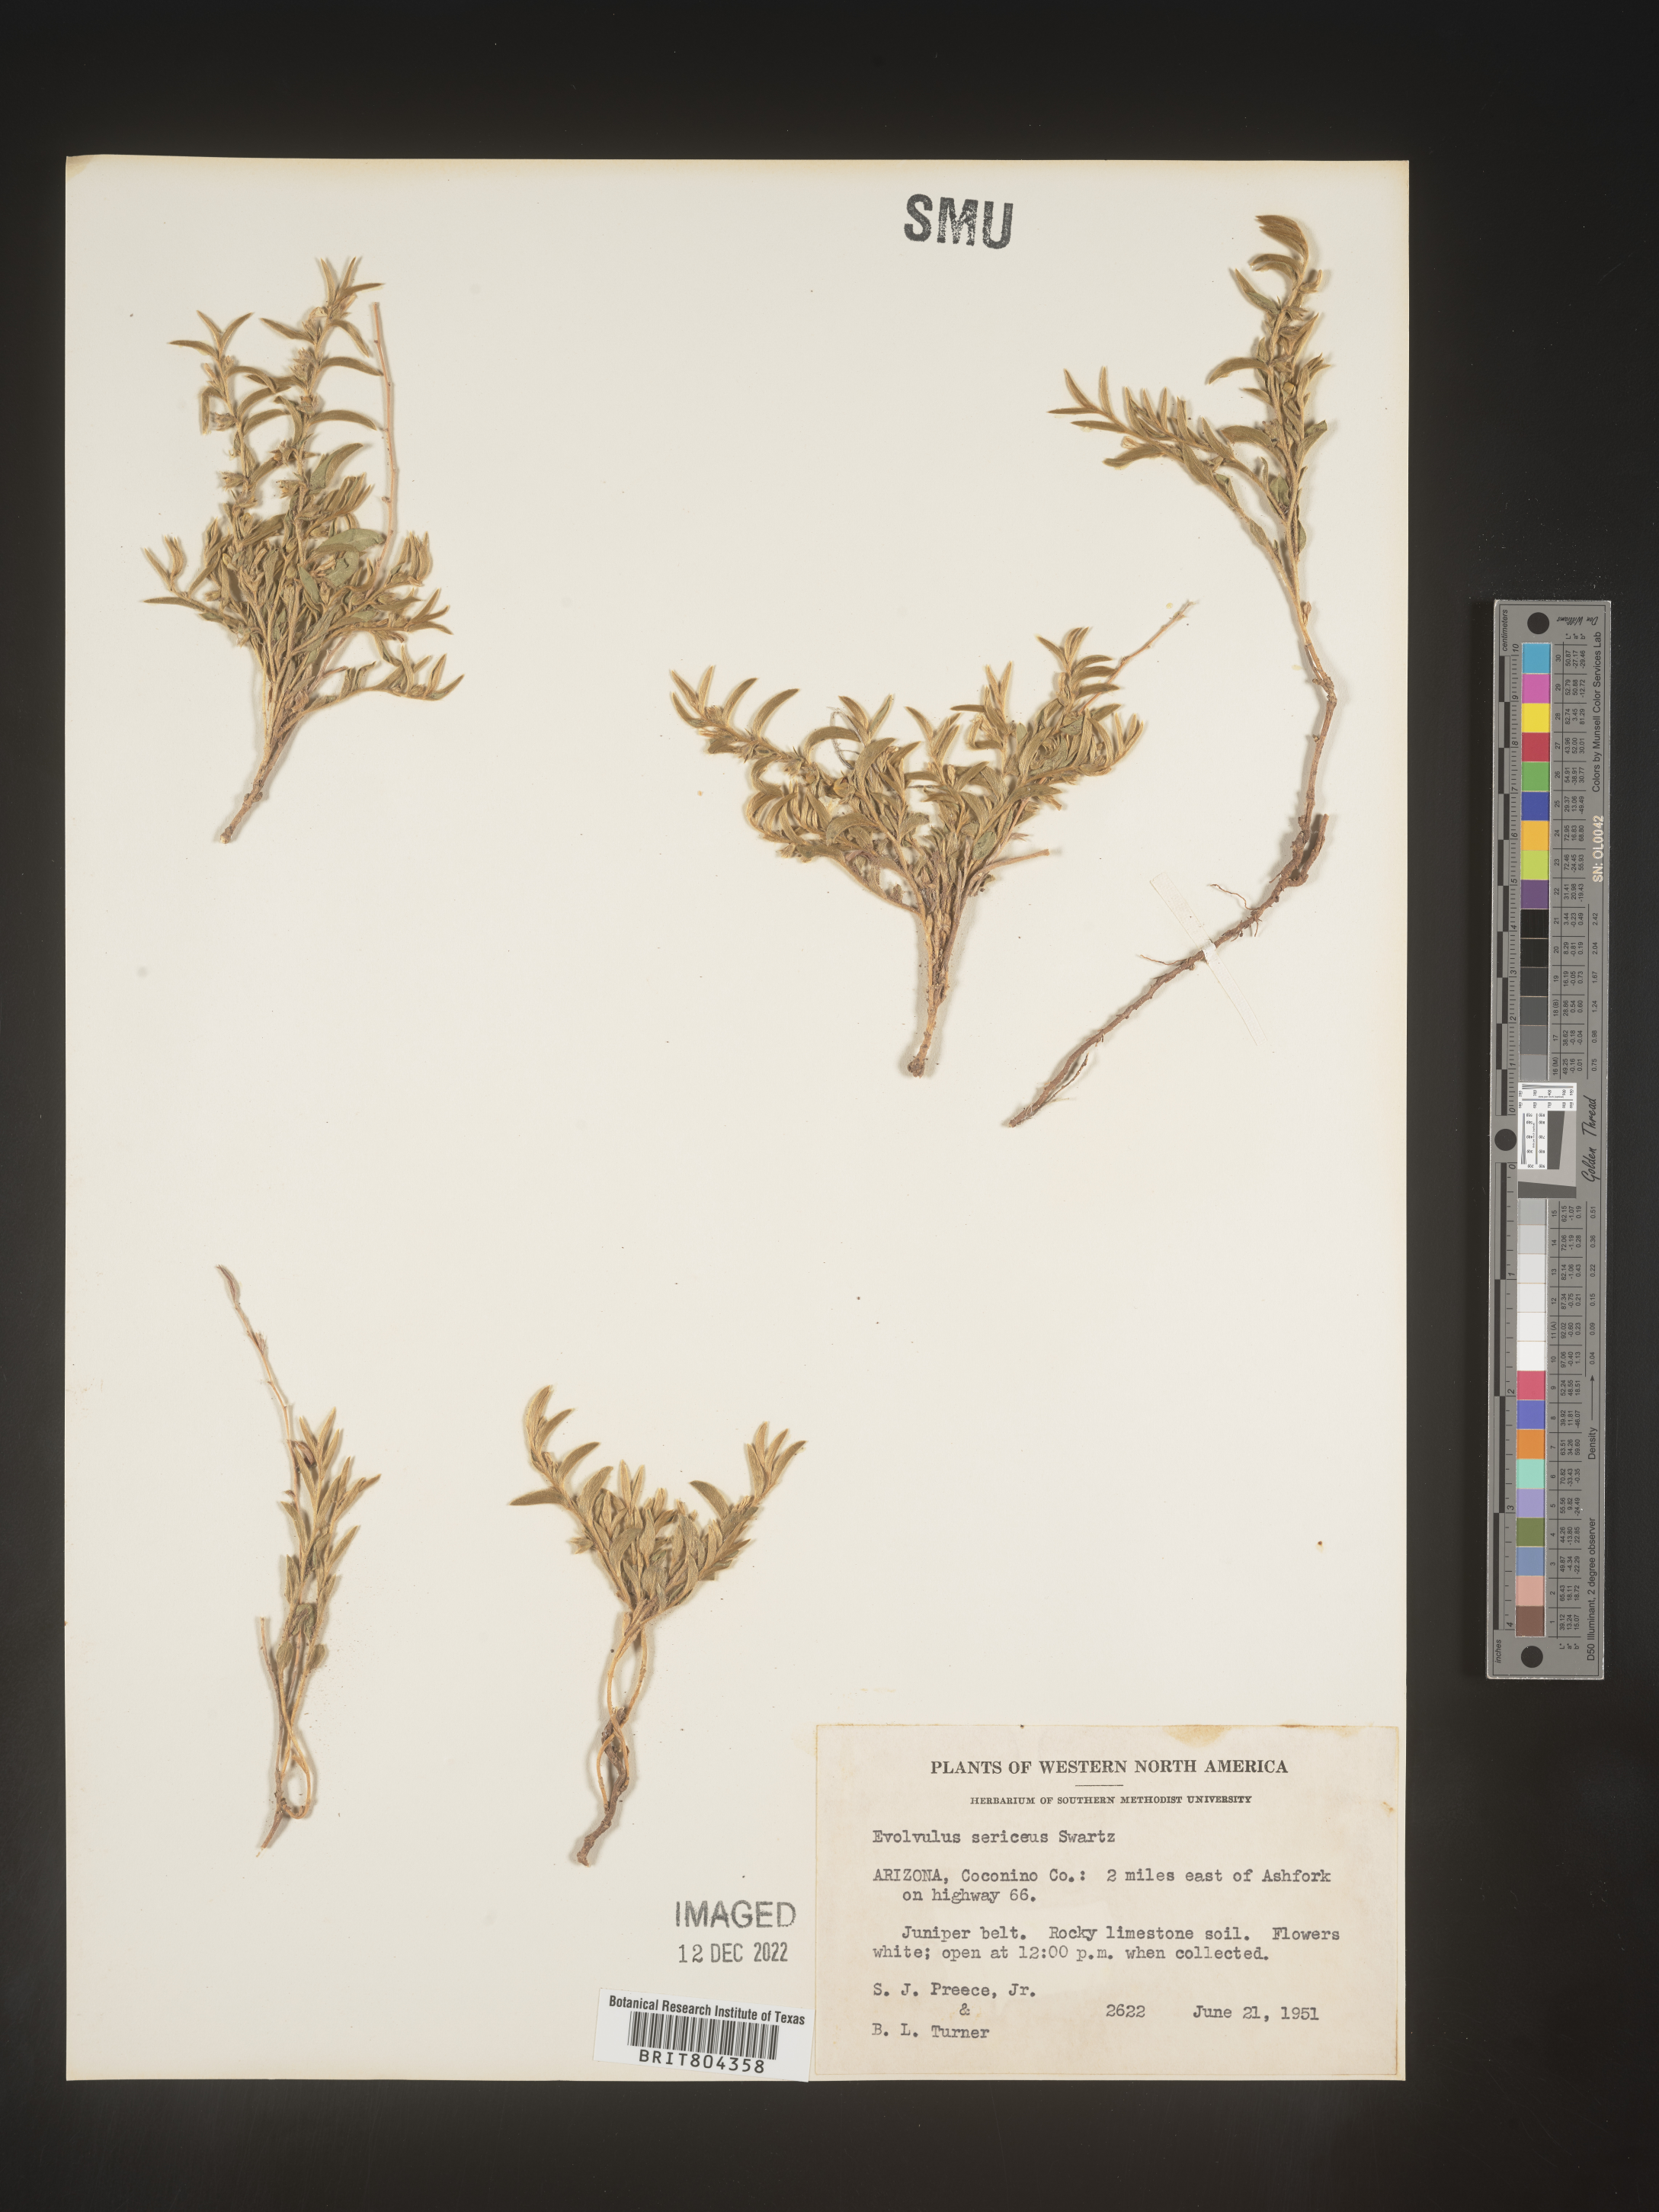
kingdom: Plantae
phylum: Tracheophyta
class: Magnoliopsida
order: Solanales
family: Convolvulaceae
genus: Evolvulus
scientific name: Evolvulus sericeus
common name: Blue dots
